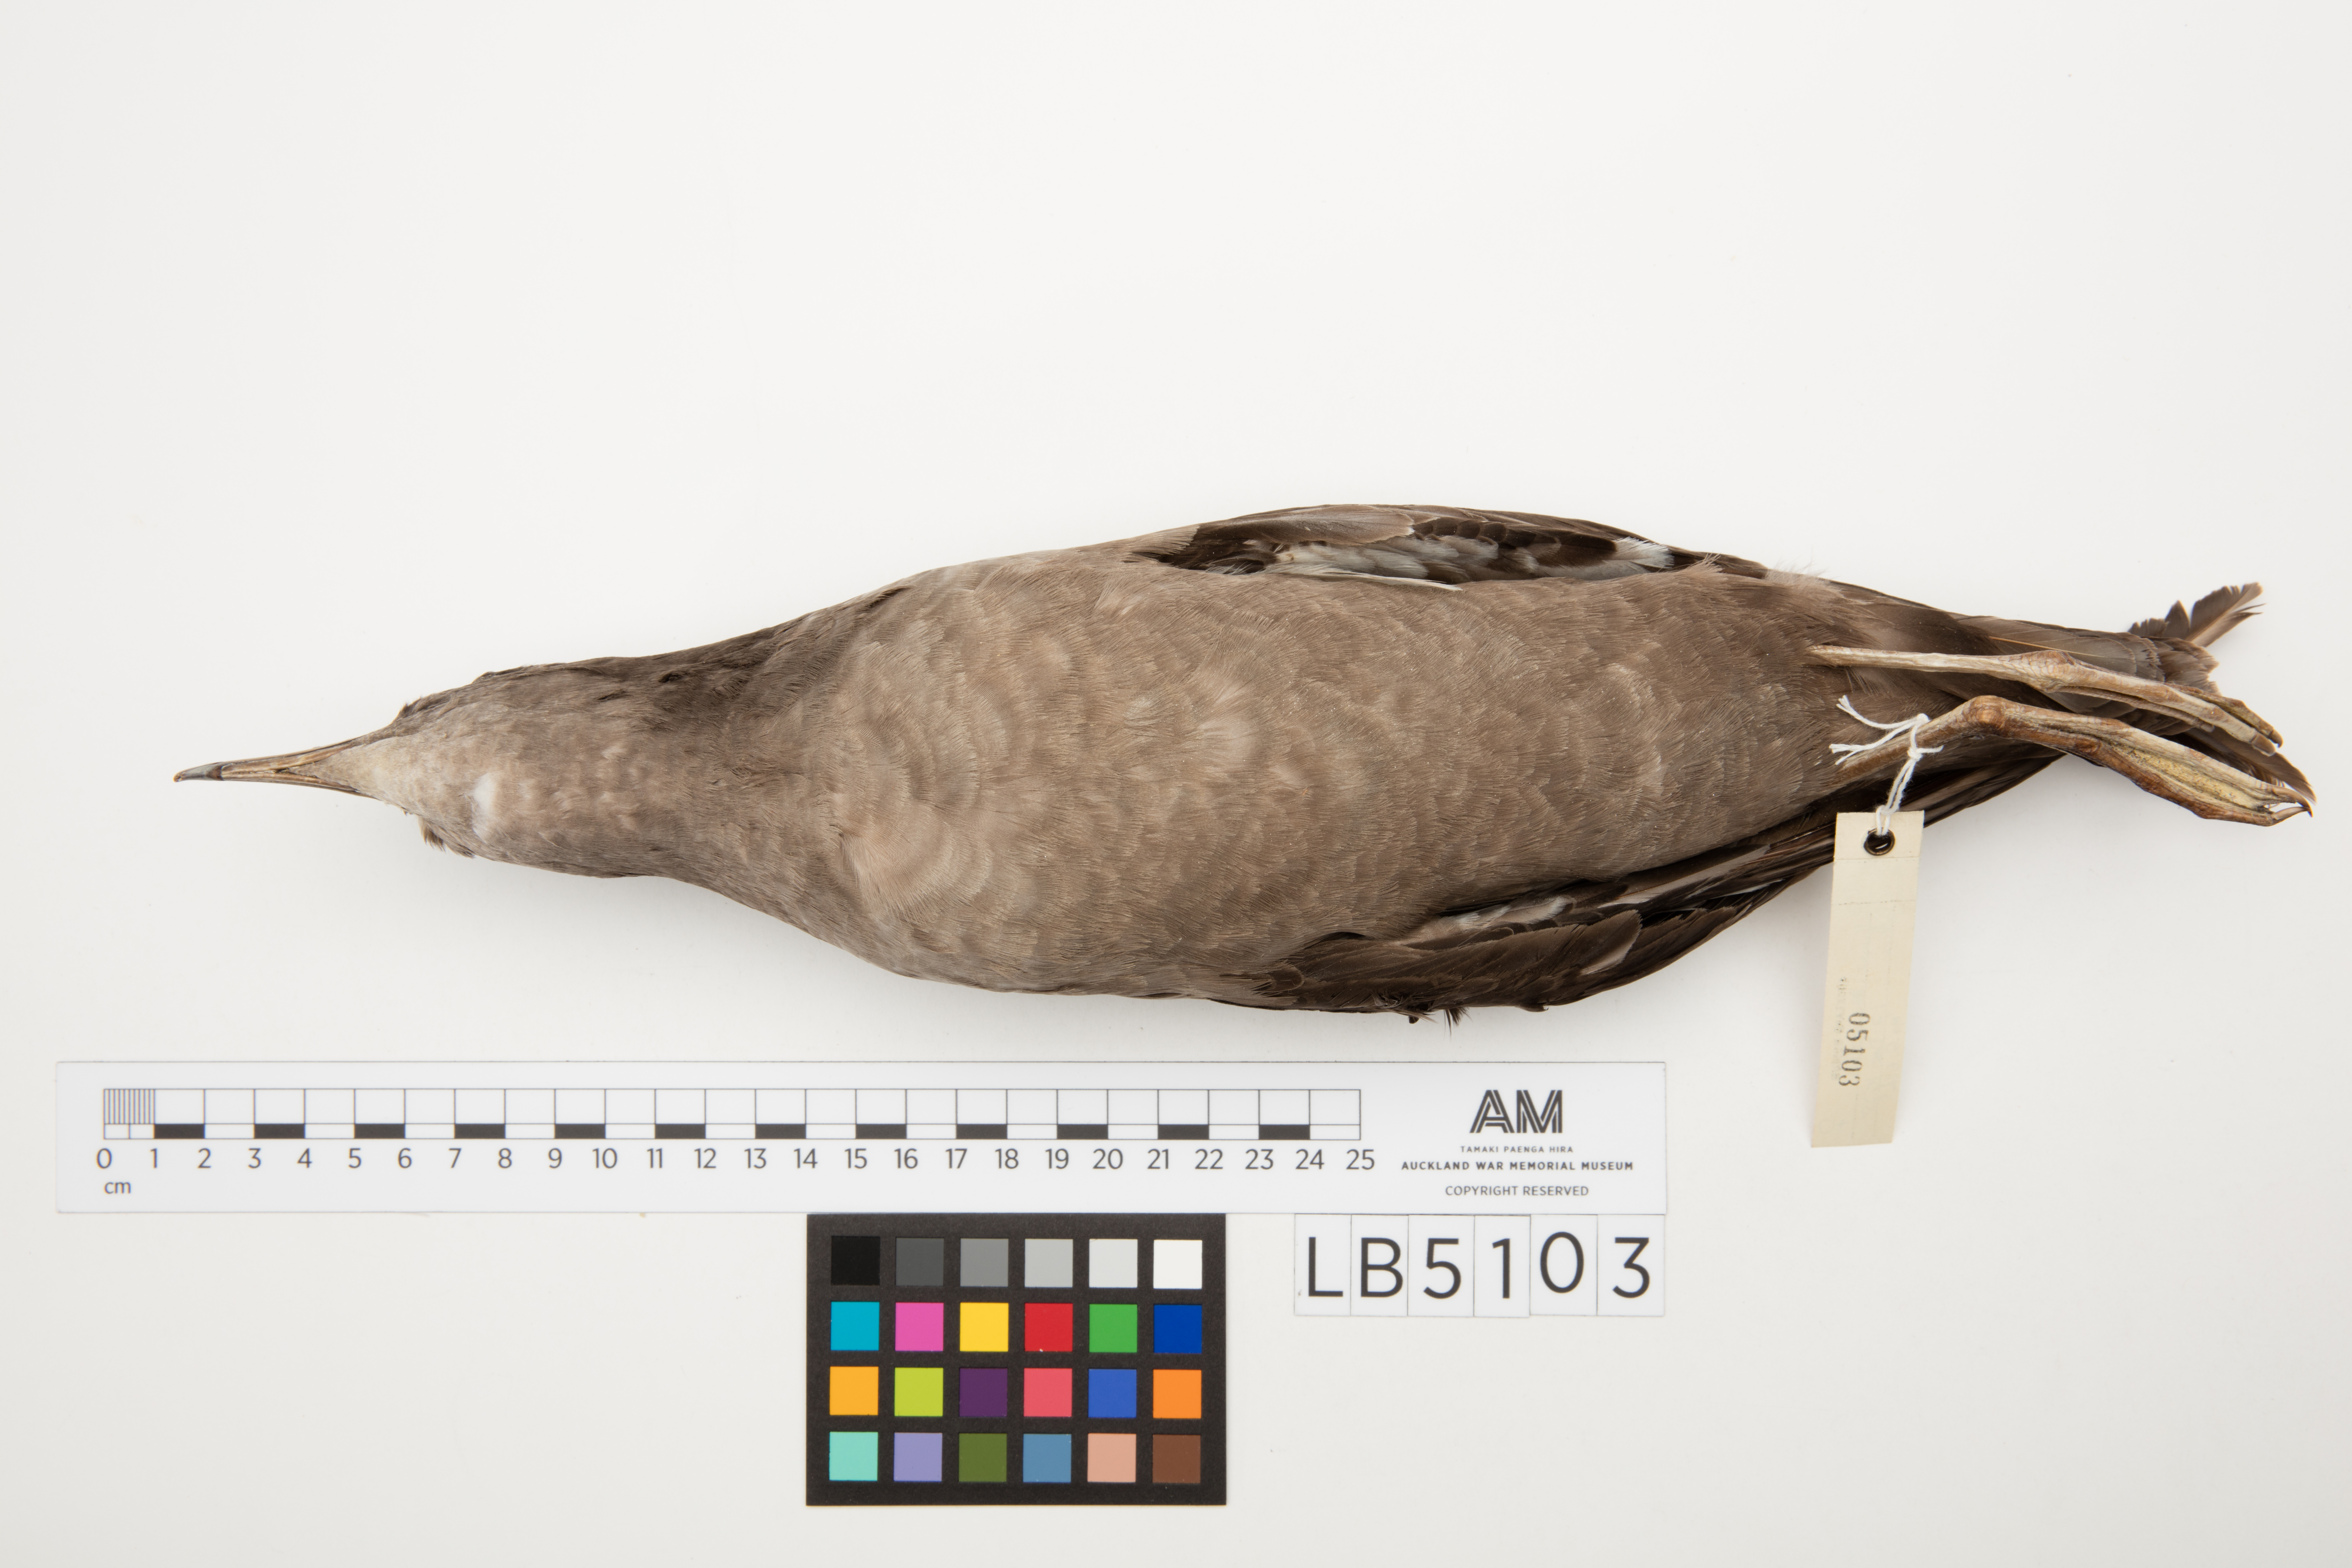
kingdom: Animalia
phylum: Chordata
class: Aves
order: Procellariiformes
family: Procellariidae
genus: Puffinus
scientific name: Puffinus tenuirostris
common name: Short-tailed shearwater
